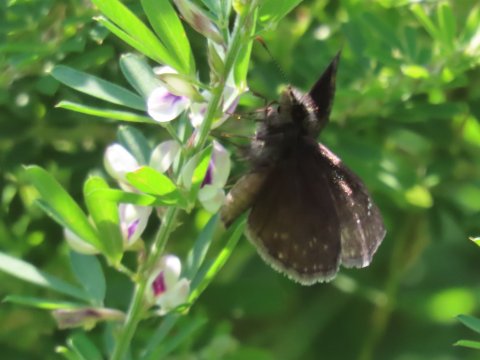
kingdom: Animalia
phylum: Arthropoda
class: Insecta
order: Lepidoptera
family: Hesperiidae
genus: Gesta
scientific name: Gesta
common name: Wild Indigo Duskywing
